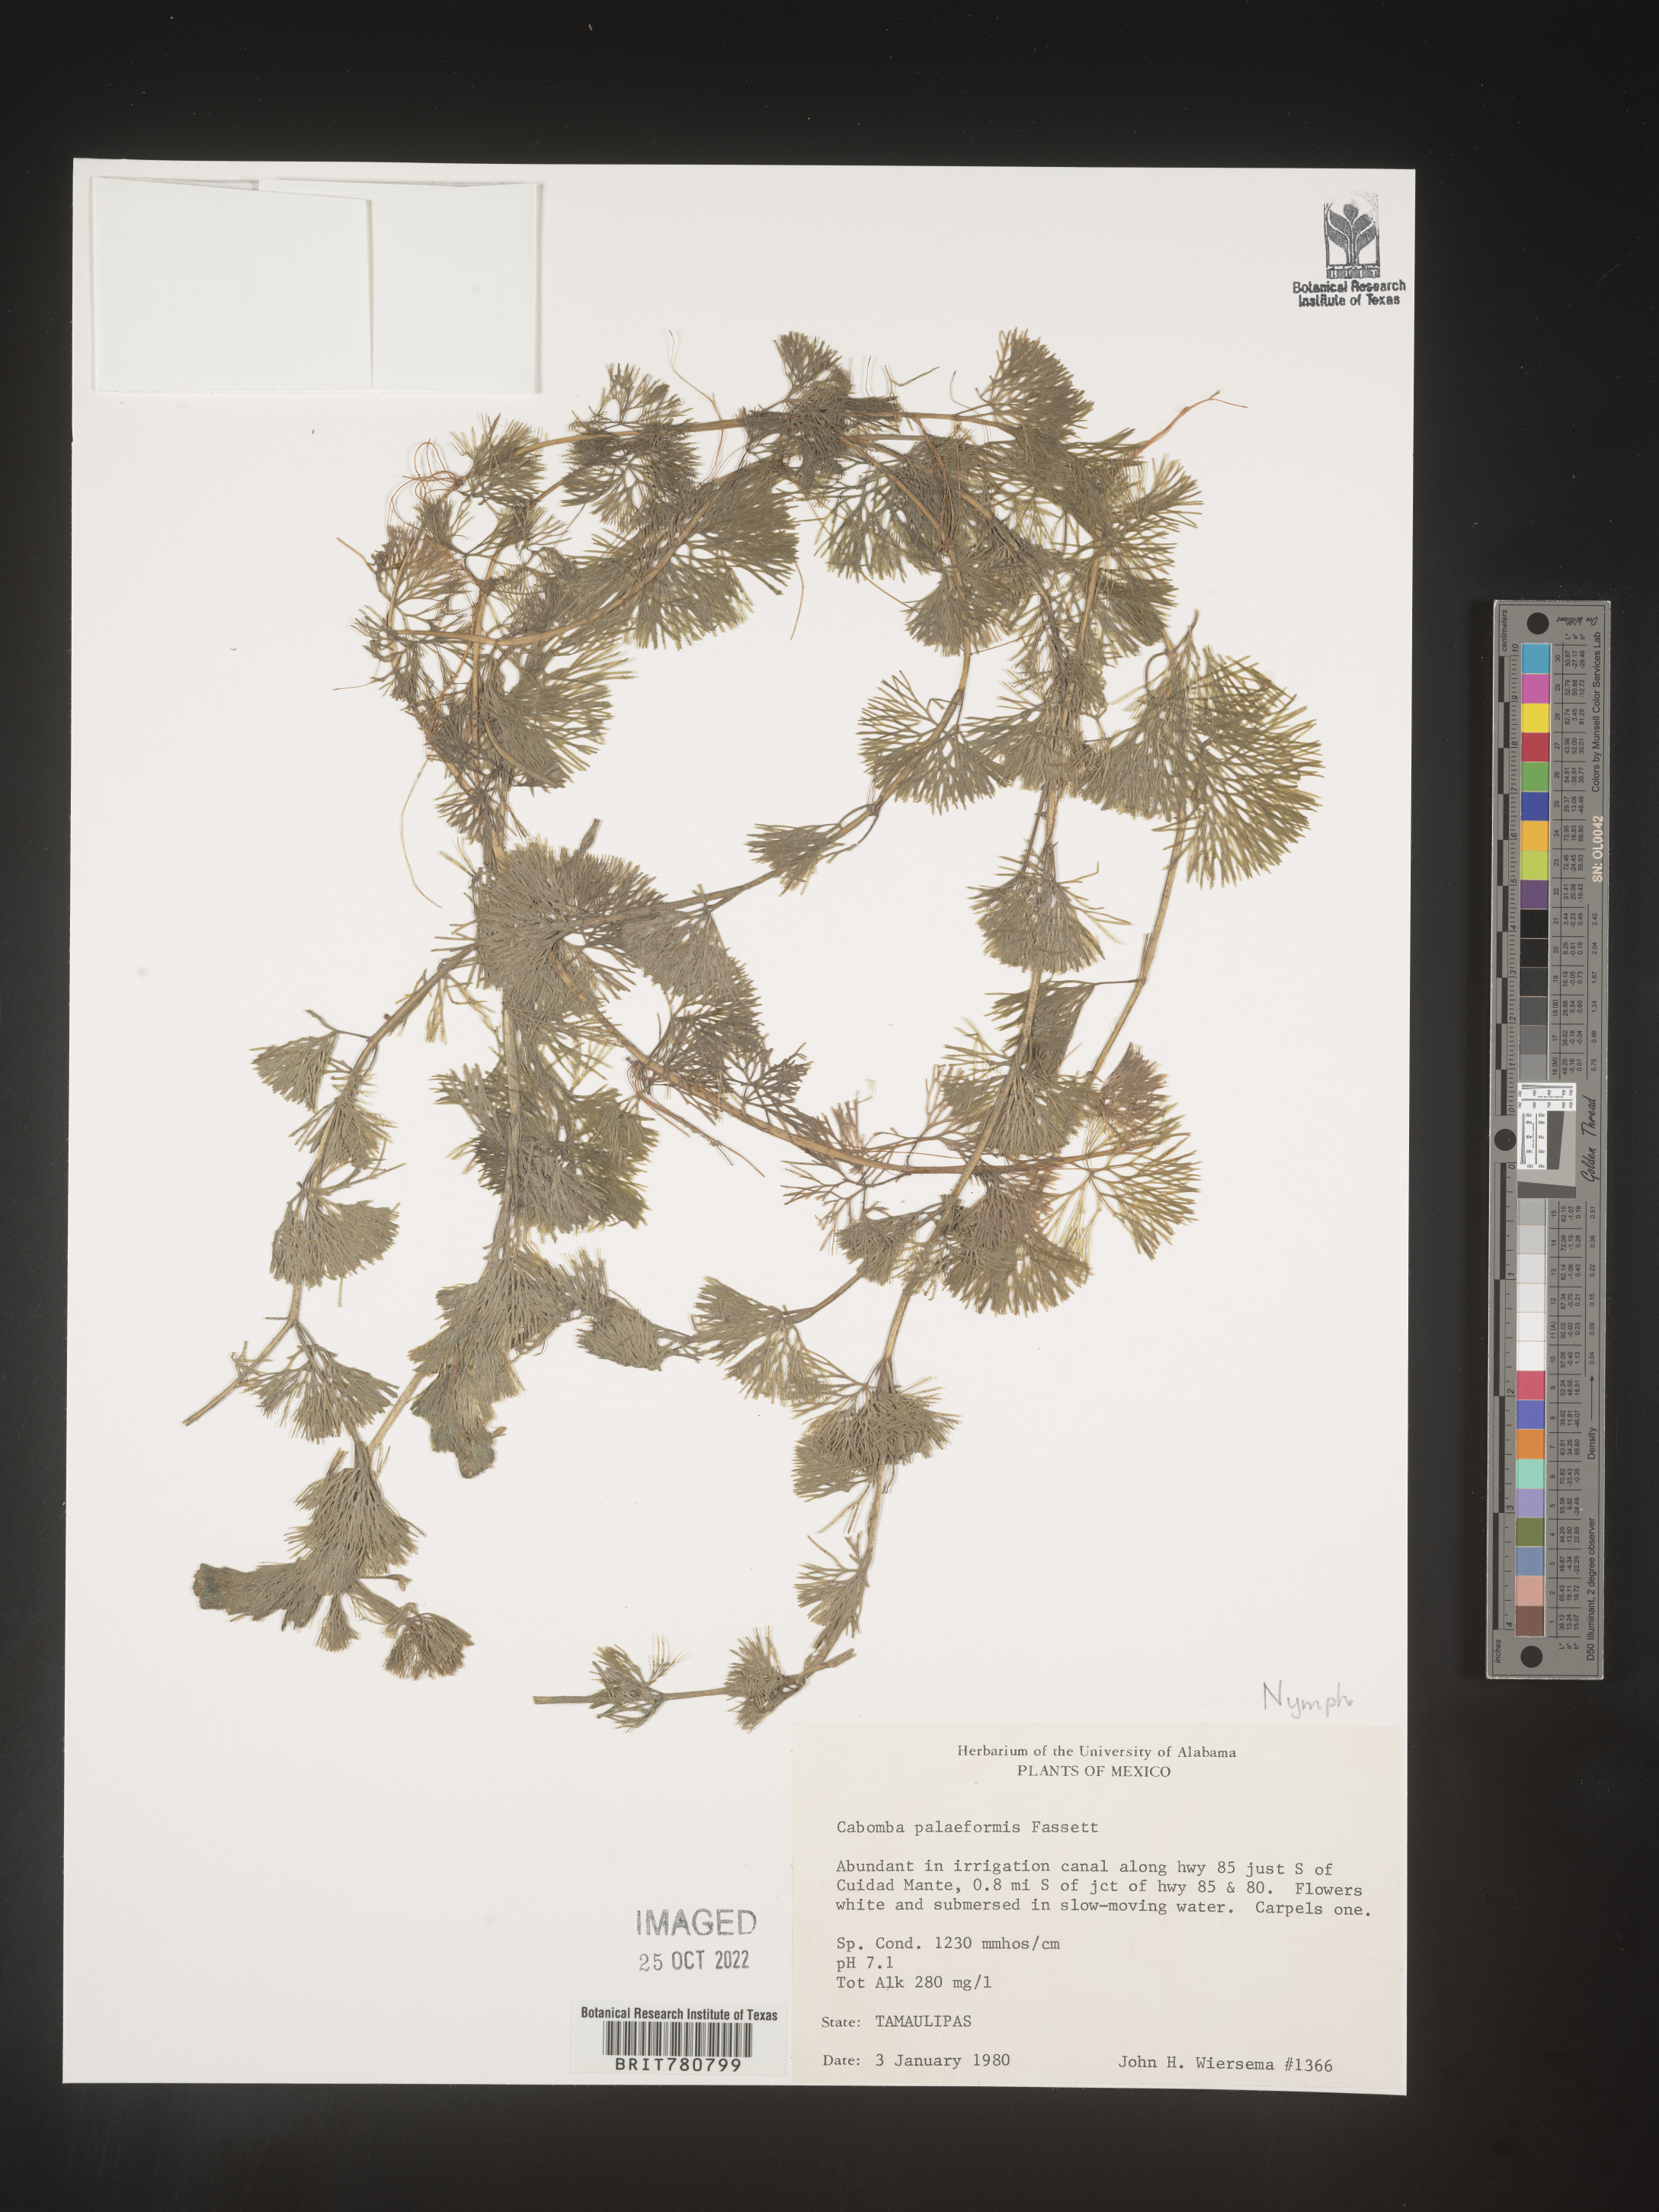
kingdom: Plantae
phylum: Tracheophyta
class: Magnoliopsida
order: Nymphaeales
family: Cabombaceae
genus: Cabomba
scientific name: Cabomba
